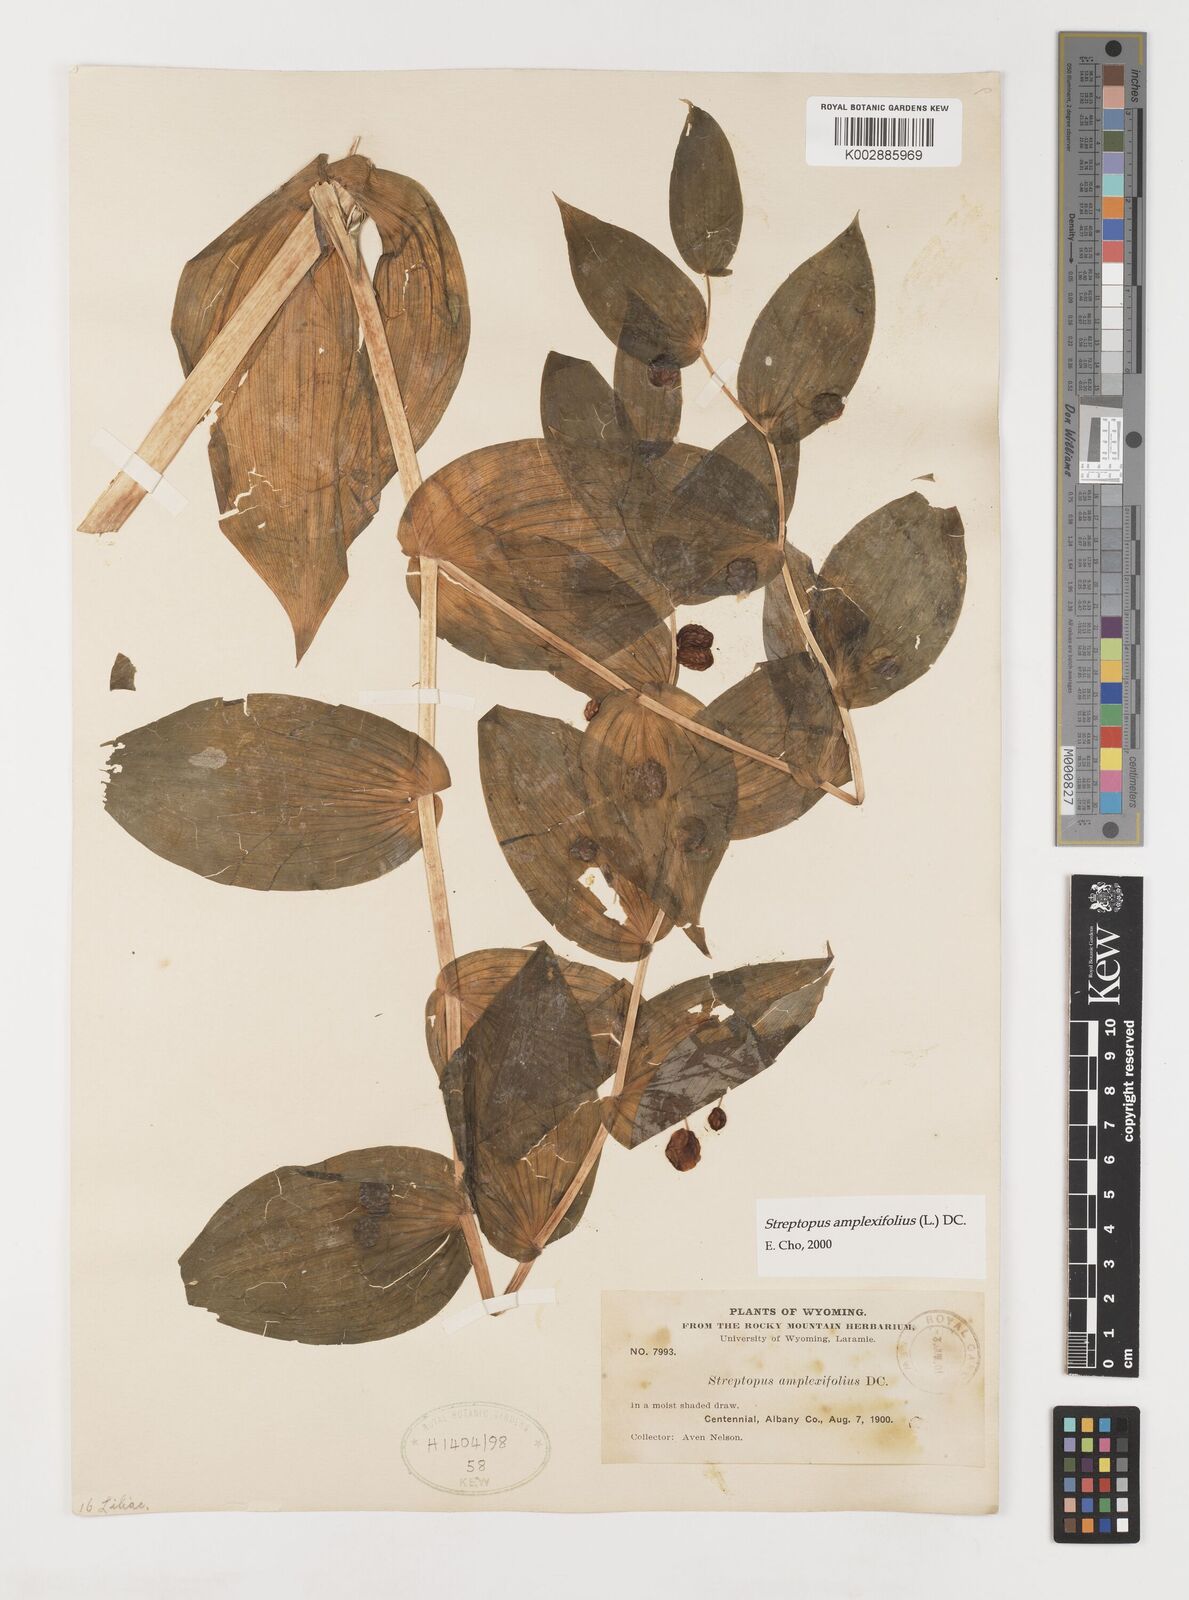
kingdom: Plantae
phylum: Tracheophyta
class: Liliopsida
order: Liliales
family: Liliaceae
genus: Streptopus
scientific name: Streptopus amplexifolius
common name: Clasp twisted stalk
